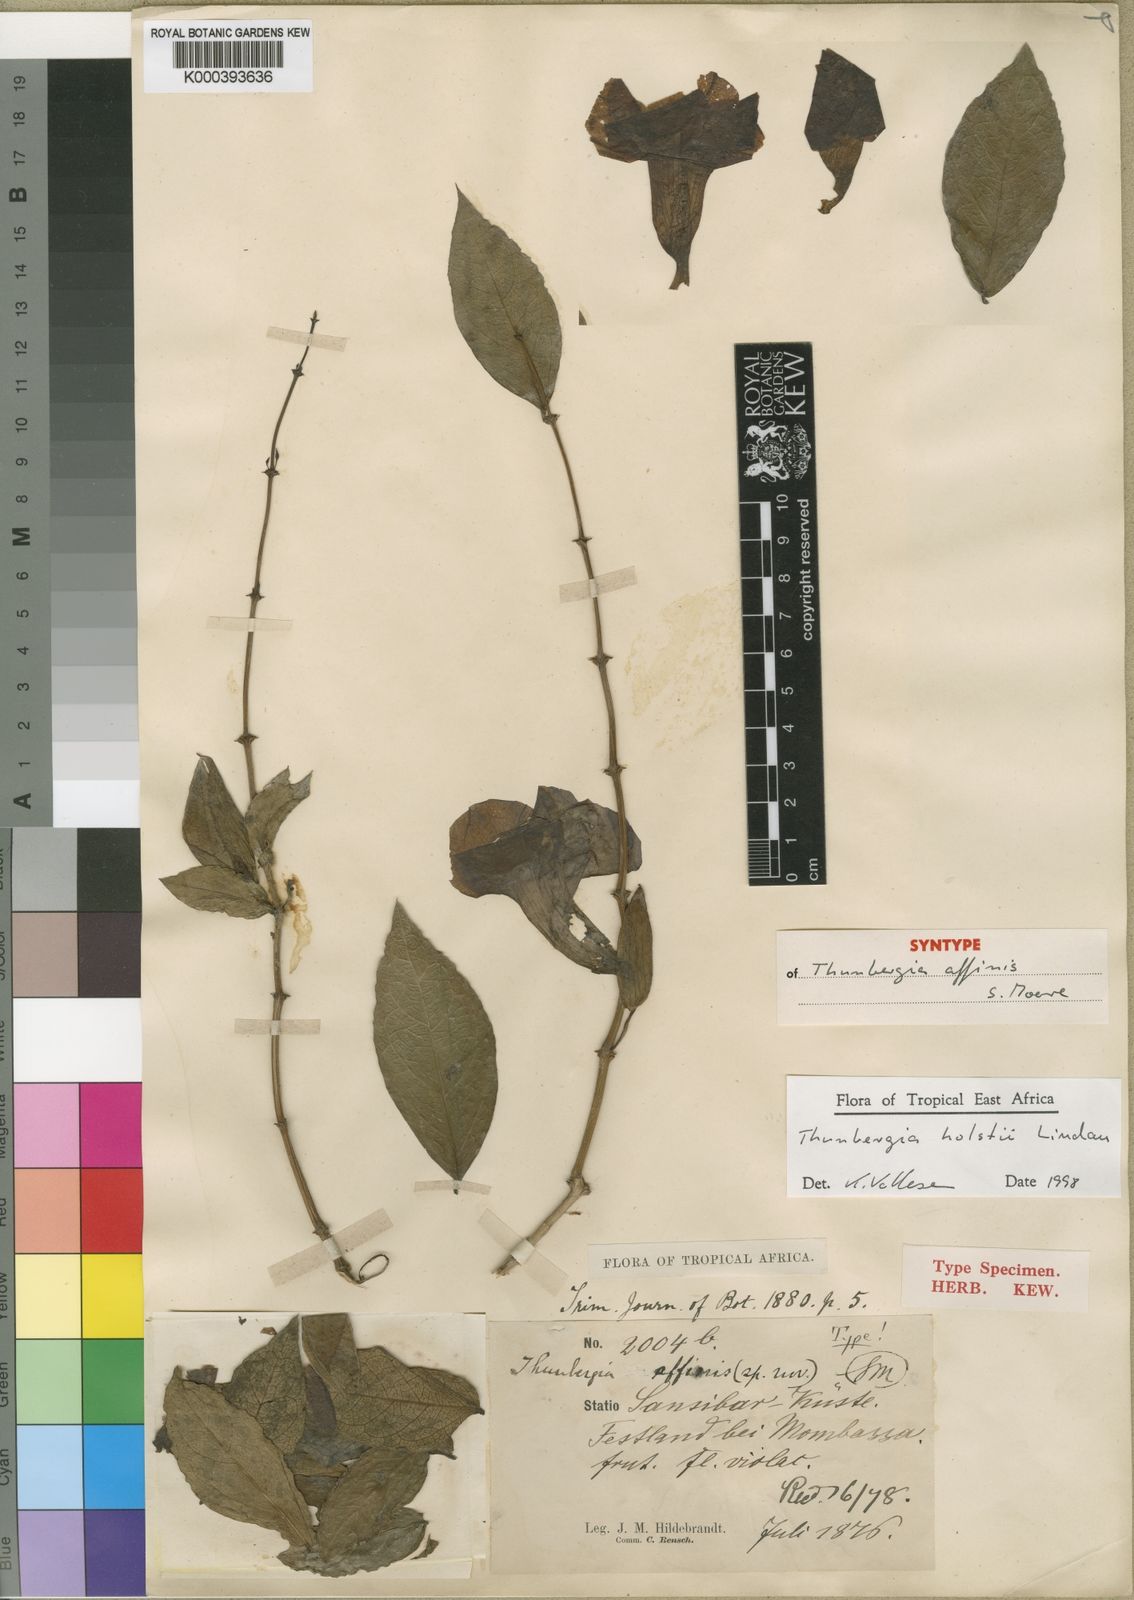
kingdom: Plantae
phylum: Tracheophyta
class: Magnoliopsida
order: Lamiales
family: Acanthaceae
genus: Thunbergia
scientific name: Thunbergia affinis
